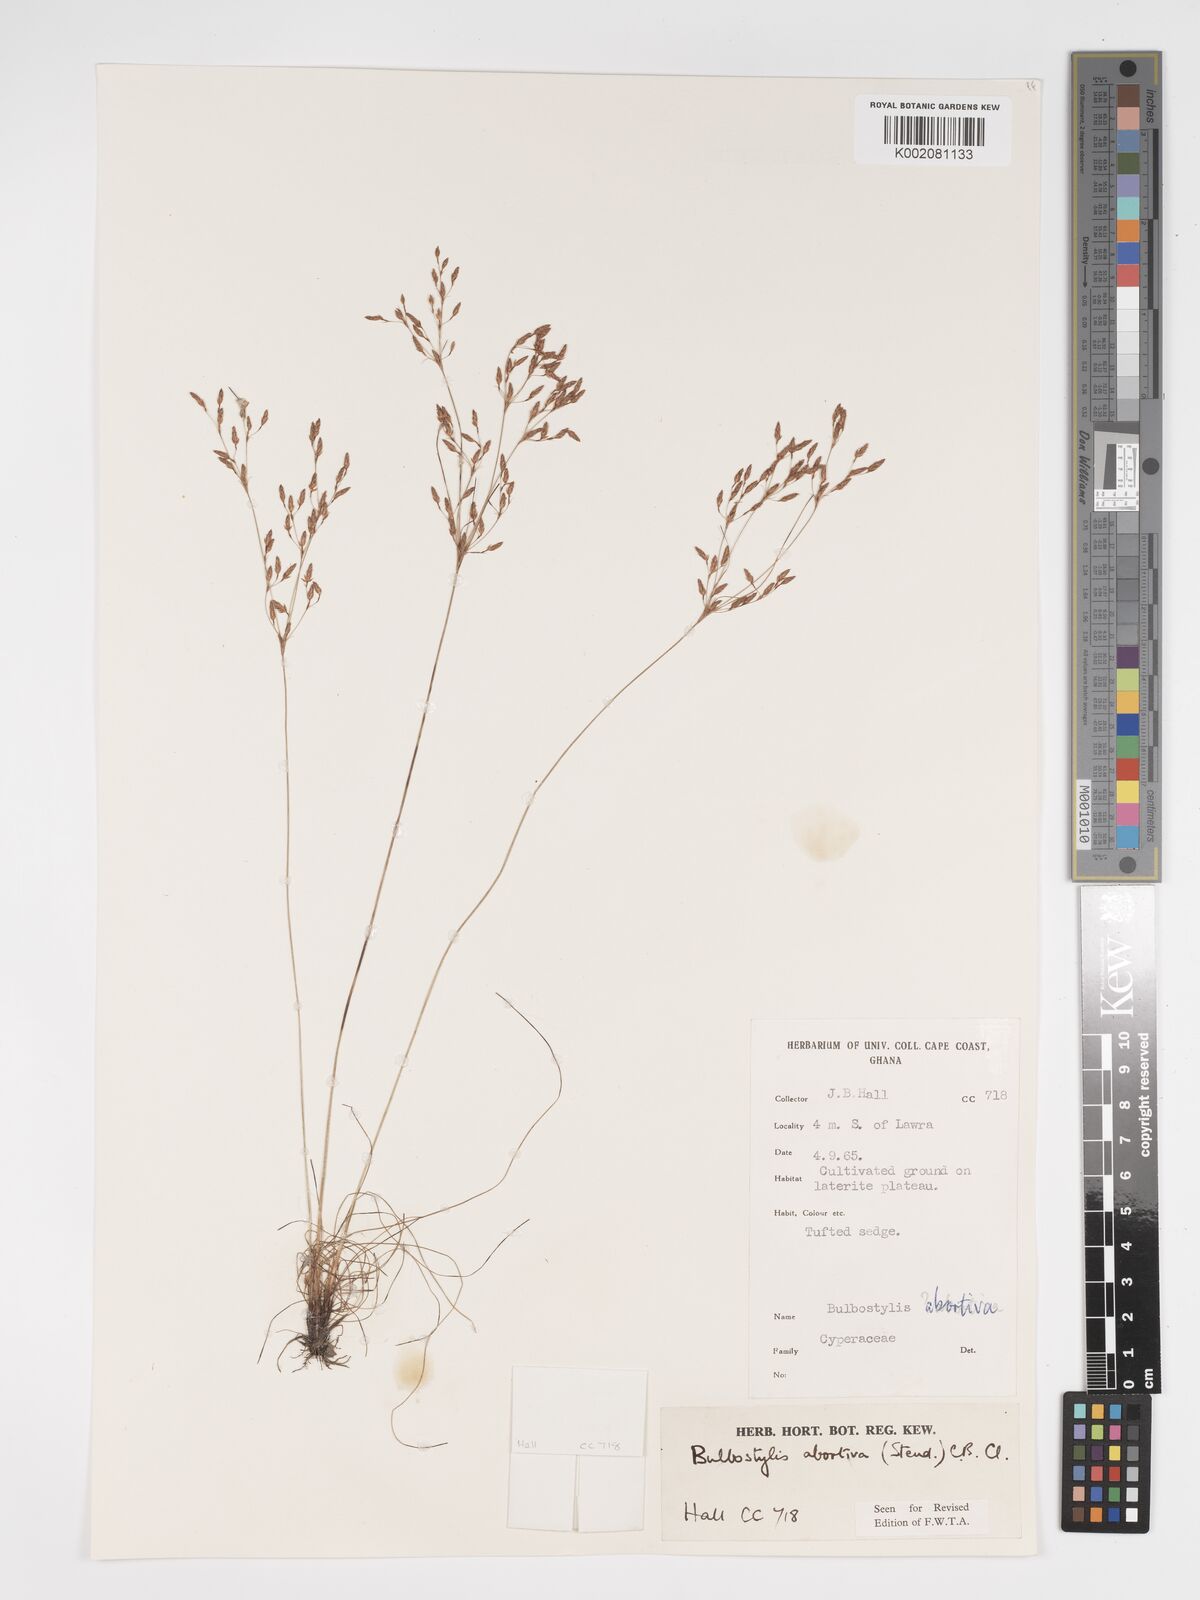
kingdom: Plantae
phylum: Tracheophyta
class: Liliopsida
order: Poales
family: Cyperaceae
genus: Bulbostylis
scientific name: Bulbostylis abortiva
